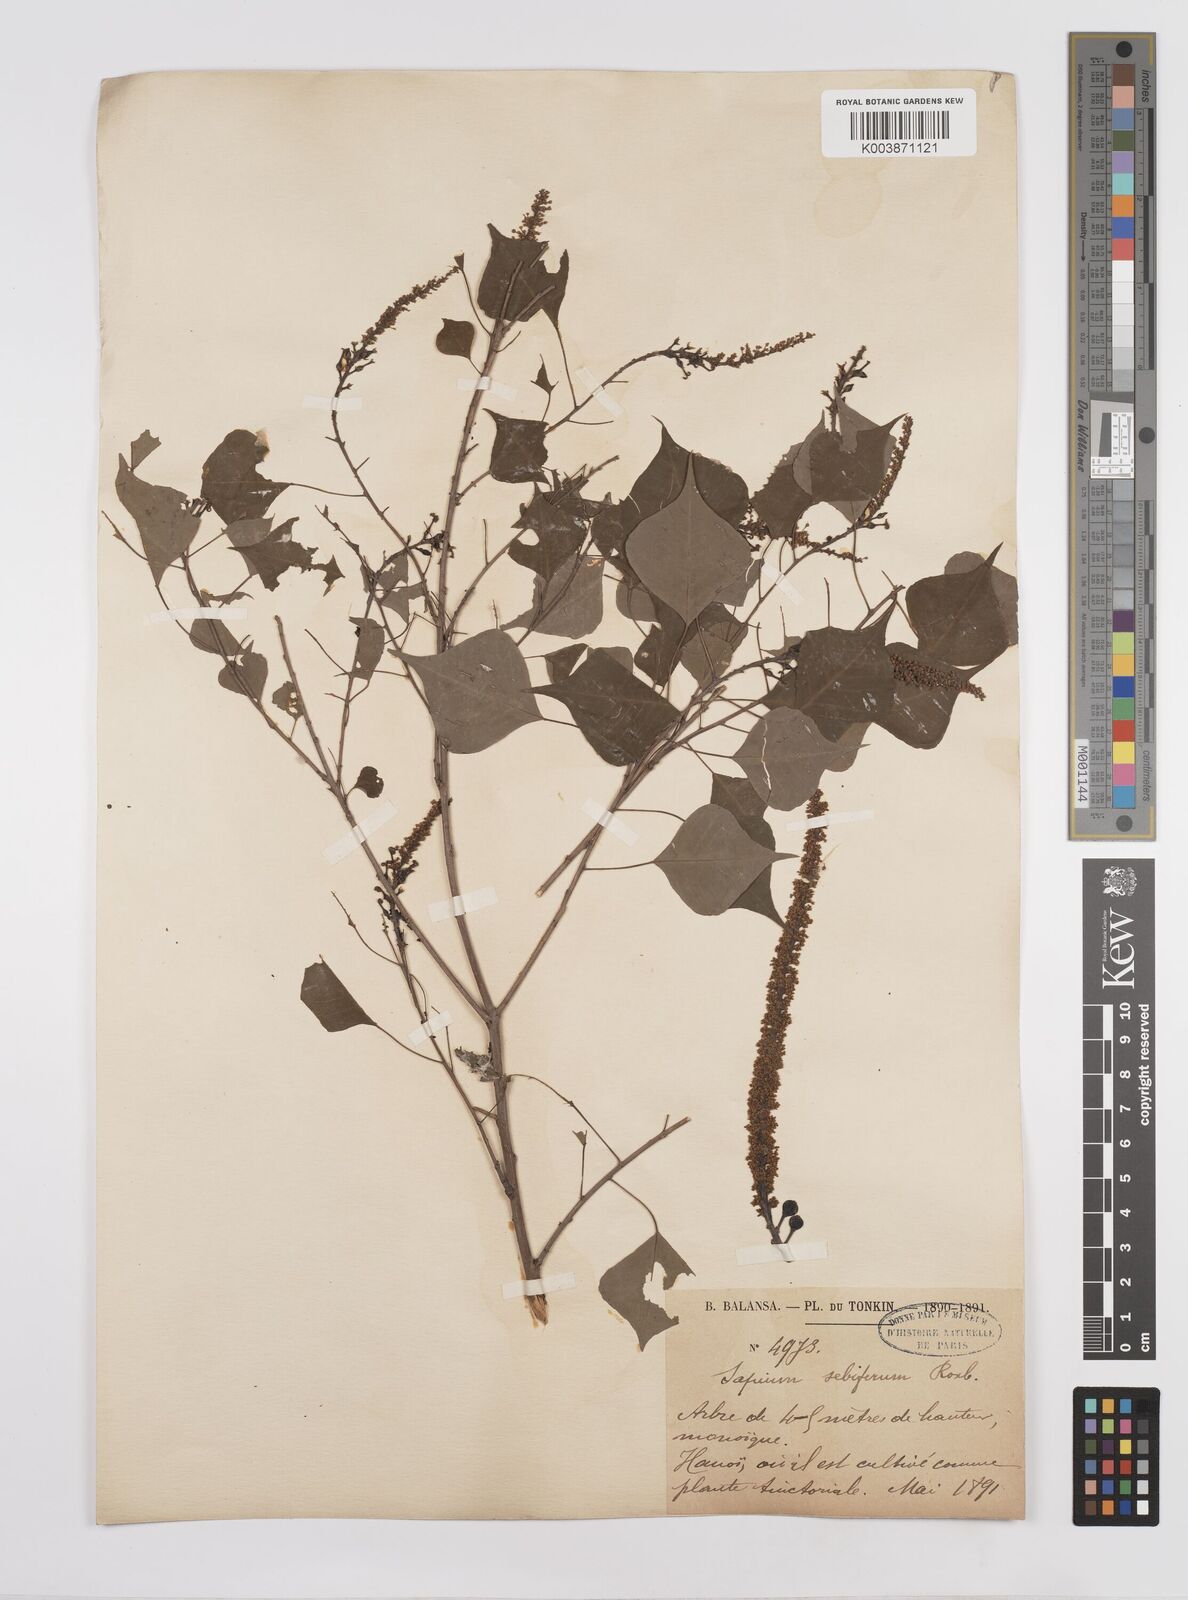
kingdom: Plantae
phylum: Tracheophyta
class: Magnoliopsida
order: Malpighiales
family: Euphorbiaceae
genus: Triadica
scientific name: Triadica sebifera
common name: Chinese tallow
